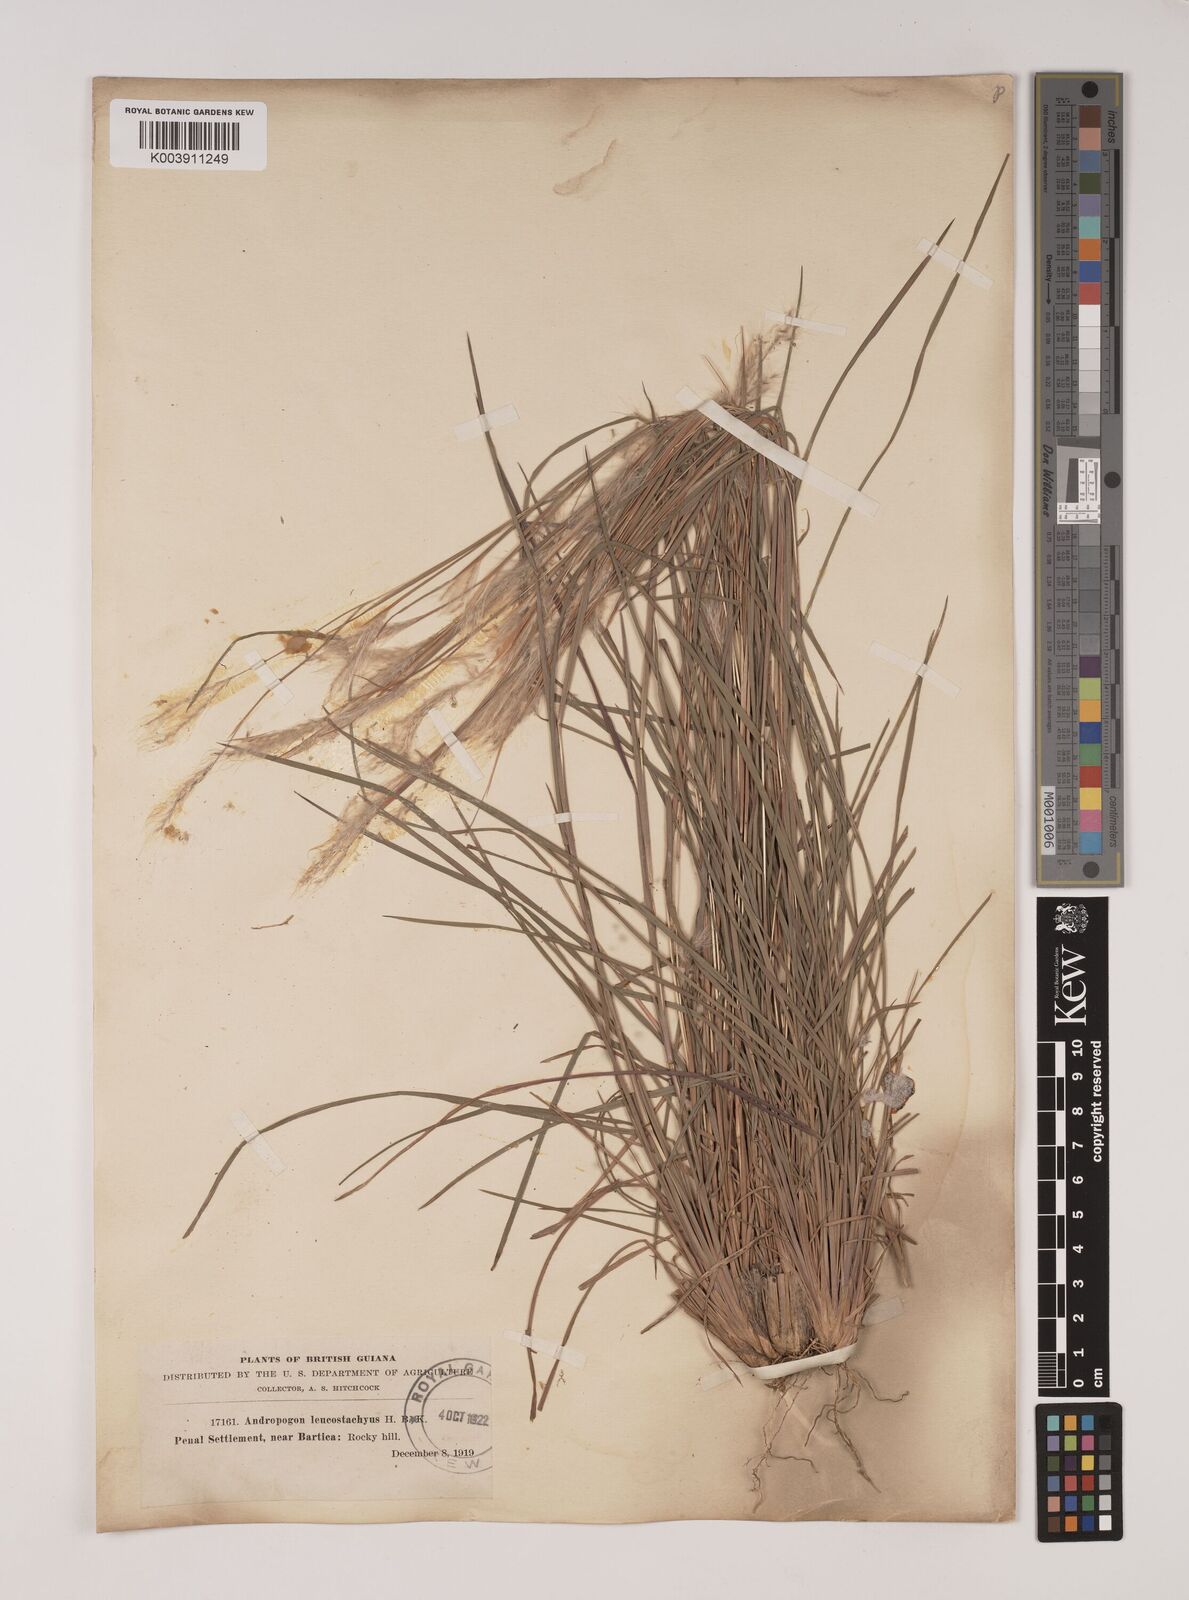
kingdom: Plantae
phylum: Tracheophyta
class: Liliopsida
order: Poales
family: Poaceae
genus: Andropogon
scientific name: Andropogon leucostachyus
